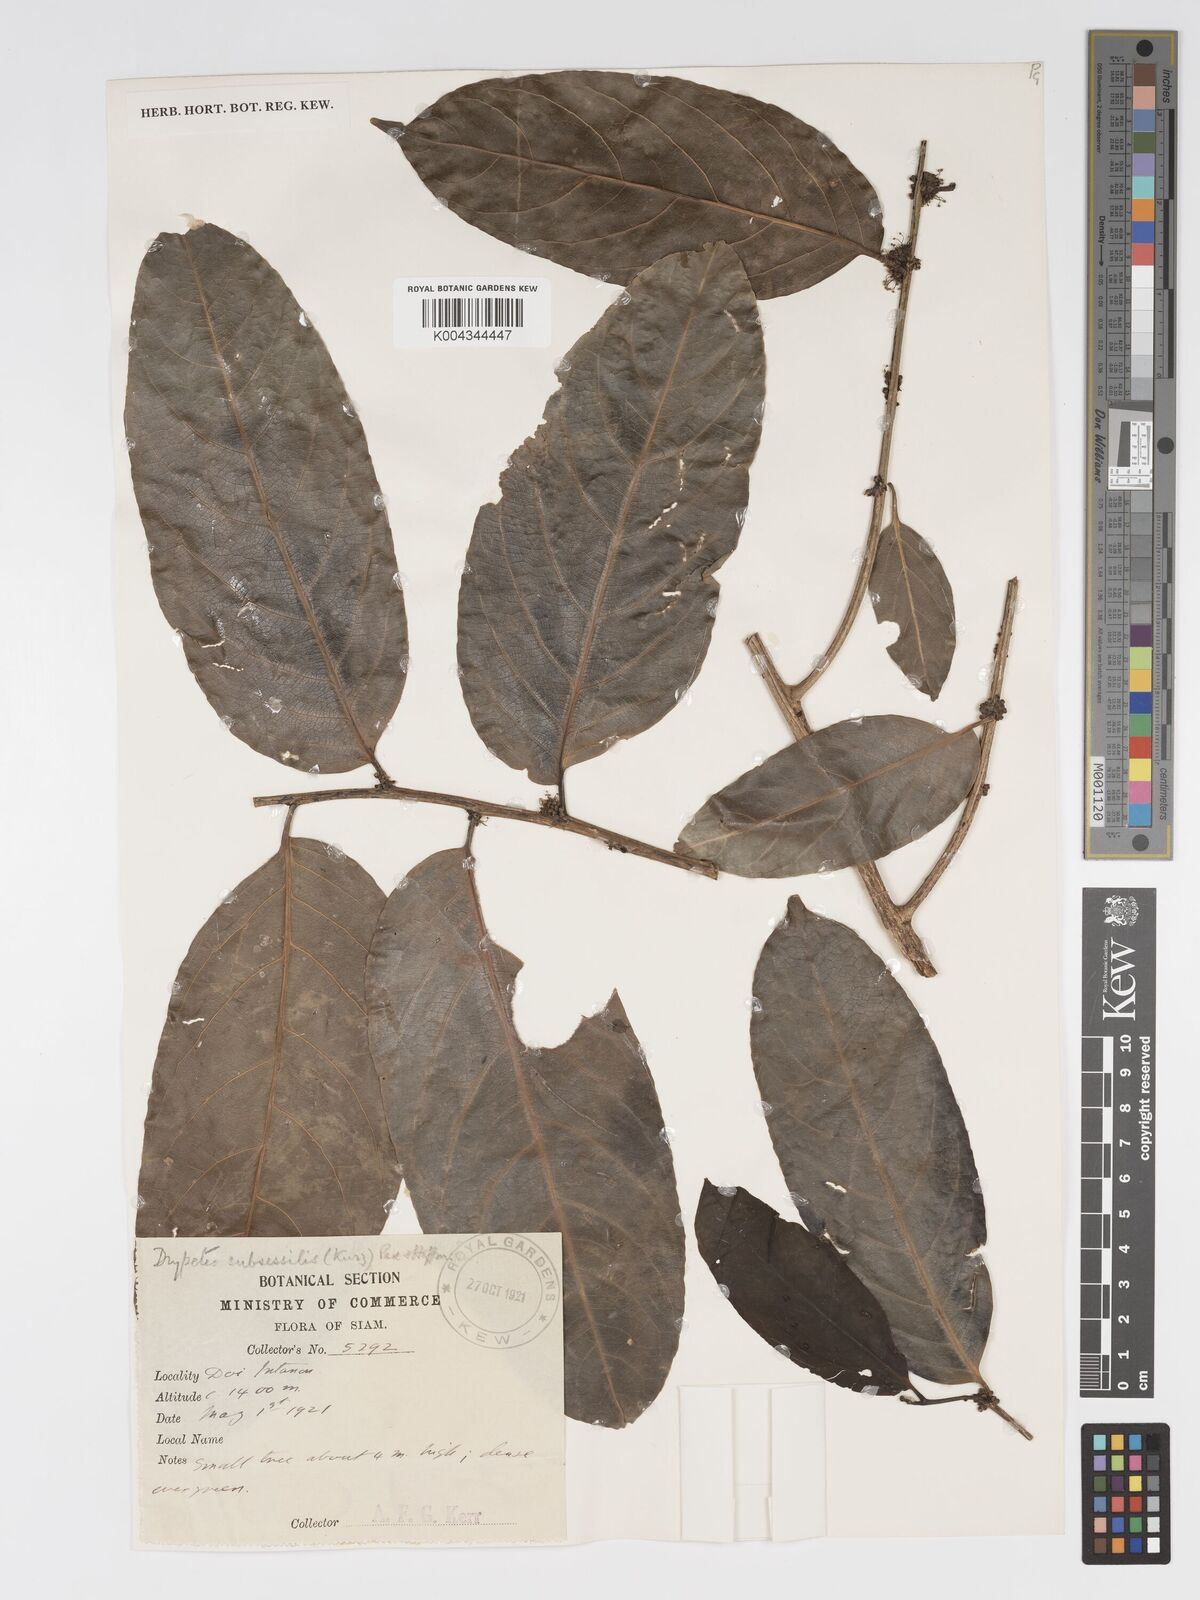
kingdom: Plantae
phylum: Tracheophyta
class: Magnoliopsida
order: Malpighiales
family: Putranjivaceae
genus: Drypetes
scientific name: Drypetes subsessilis
